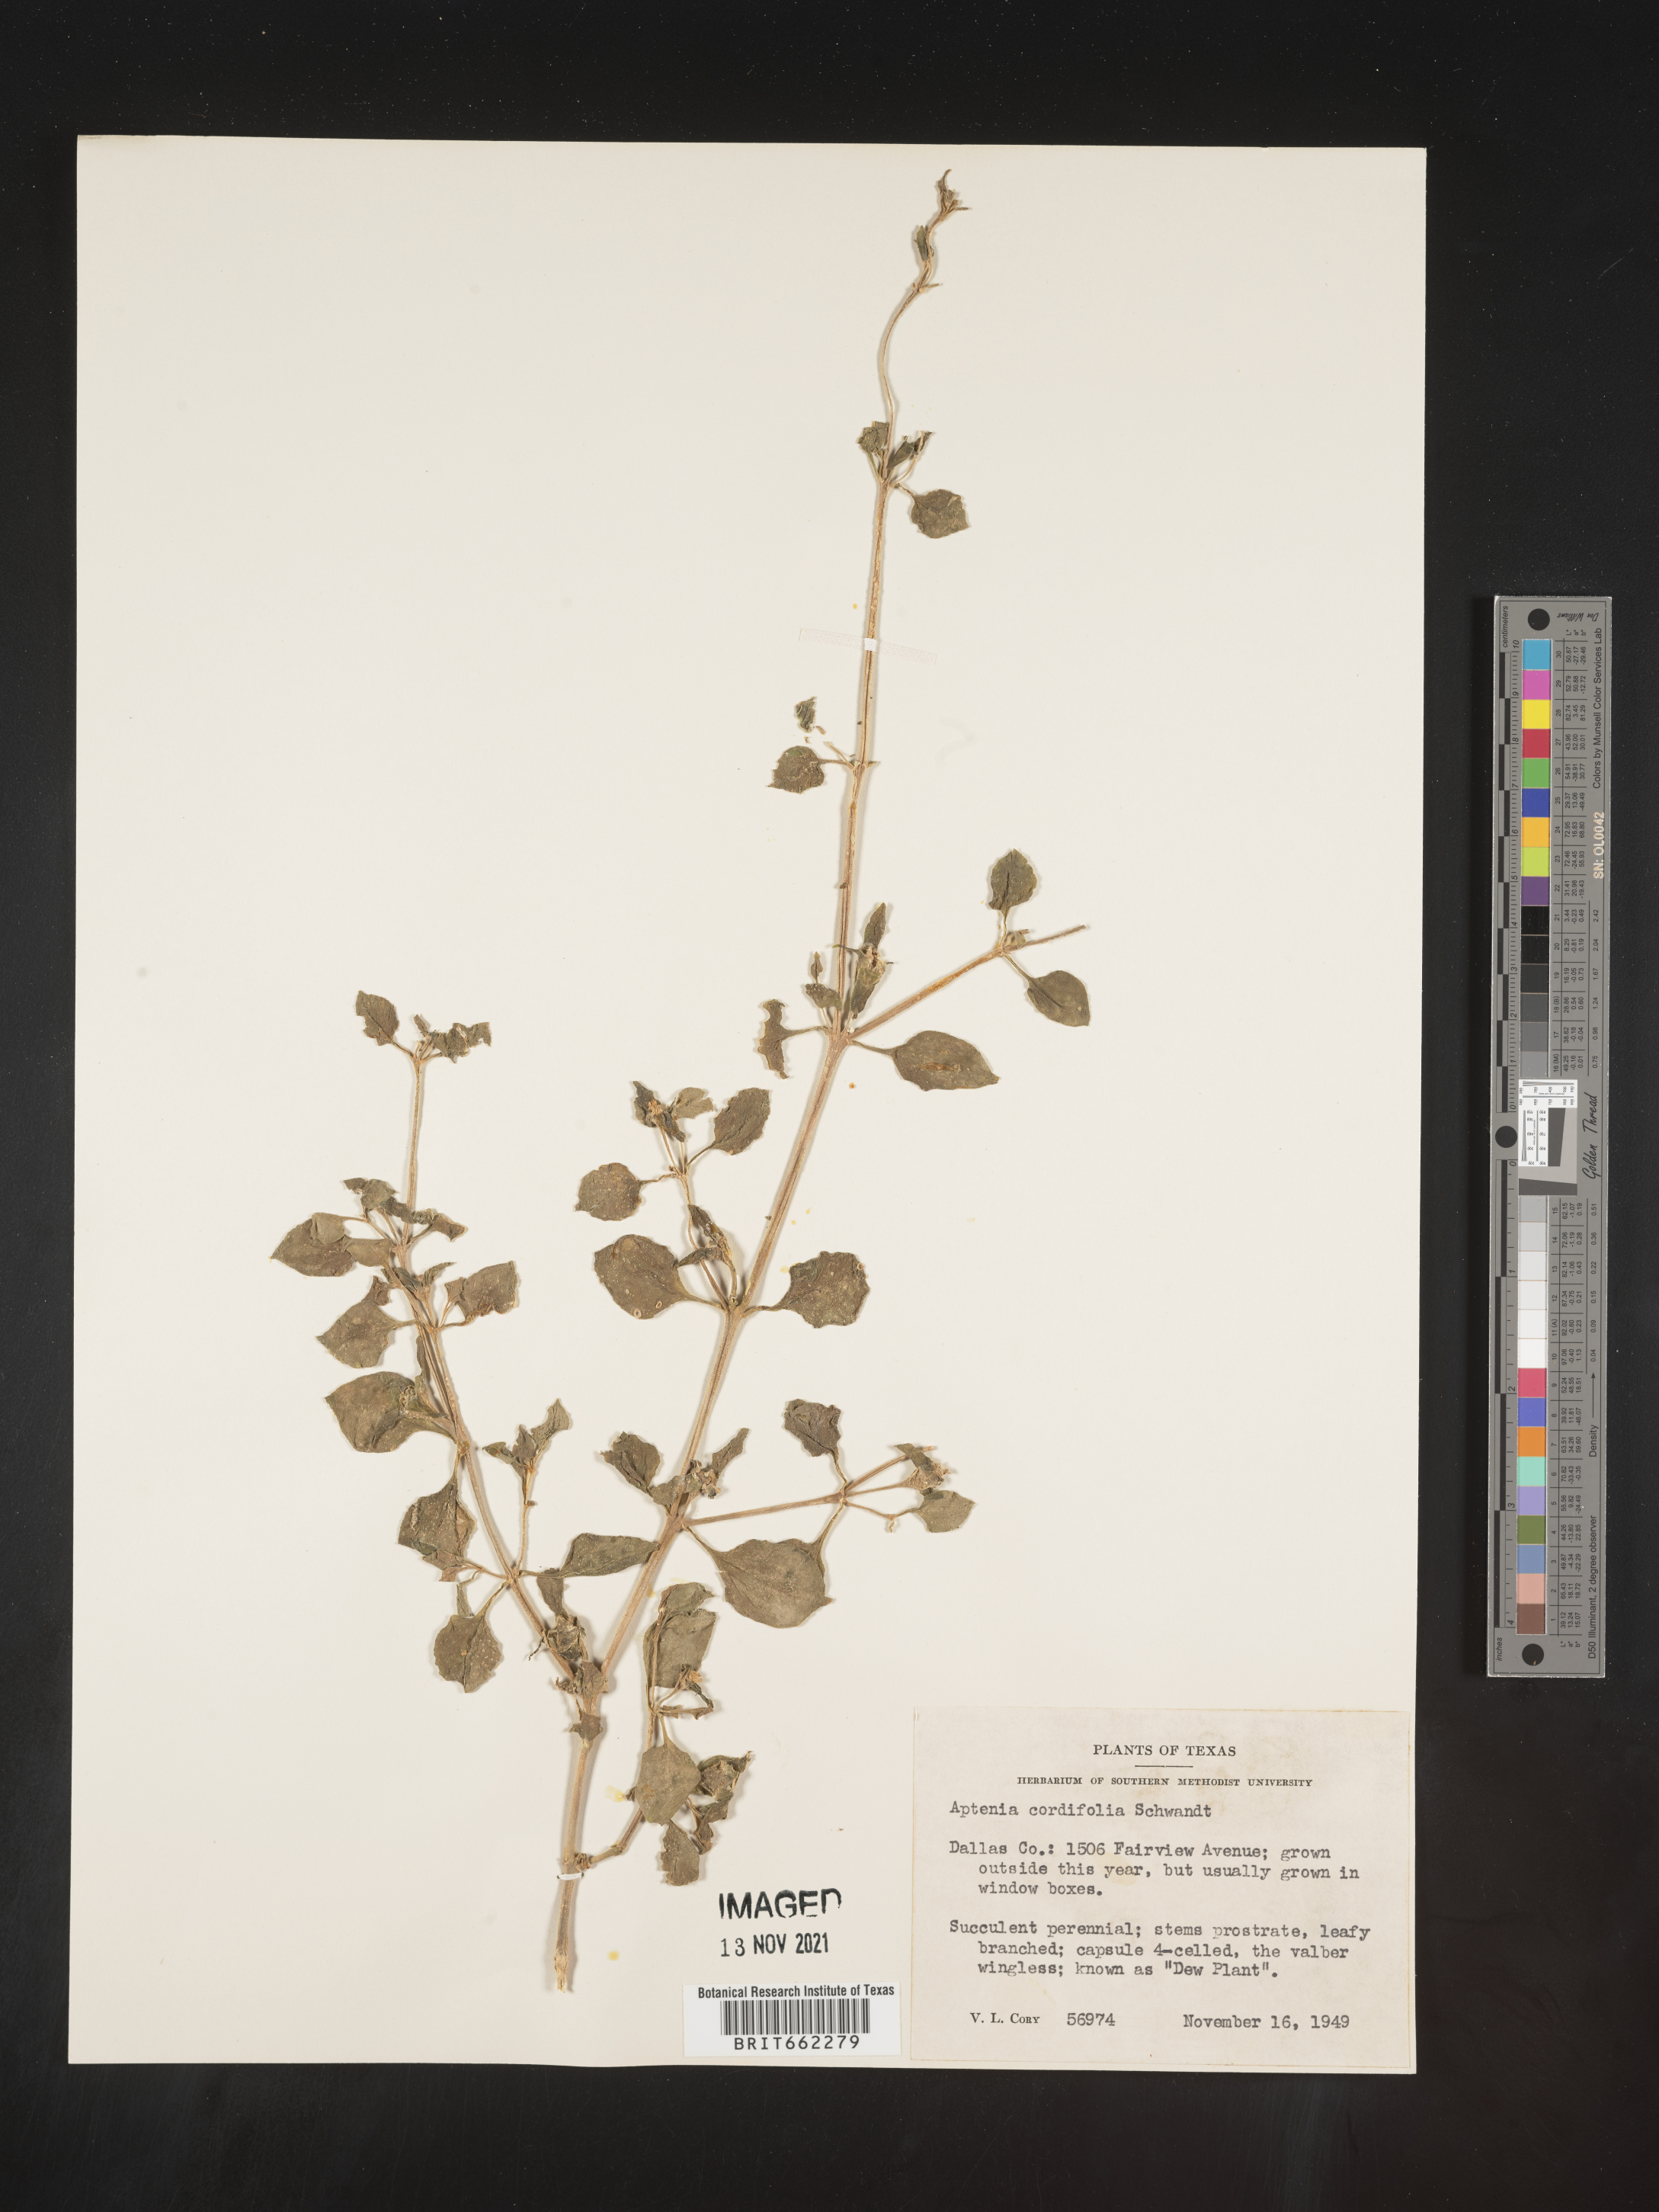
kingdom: Plantae
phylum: Tracheophyta
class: Magnoliopsida
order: Caryophyllales
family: Aizoaceae
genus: Mesembryanthemum
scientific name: Mesembryanthemum
